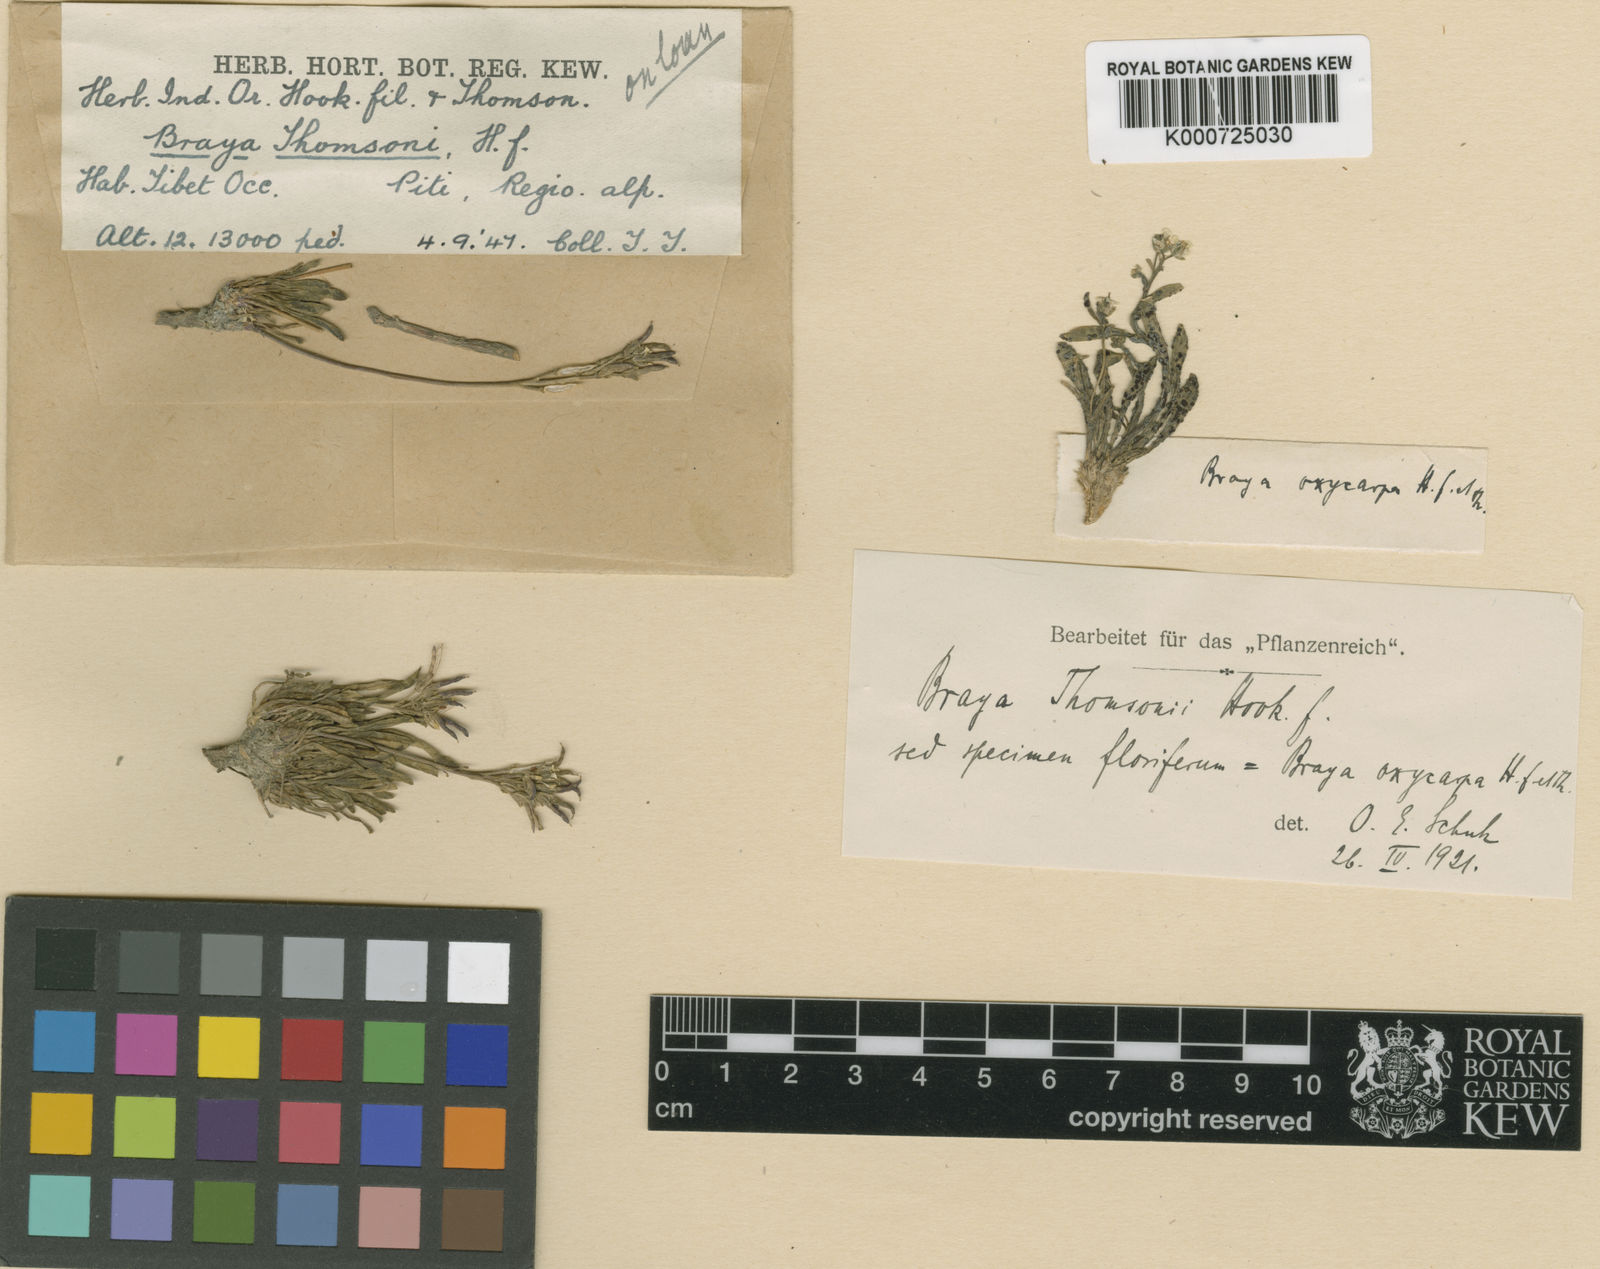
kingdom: Plantae
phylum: Tracheophyta
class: Magnoliopsida
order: Brassicales
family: Brassicaceae
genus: Braya
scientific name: Braya thomsonii
